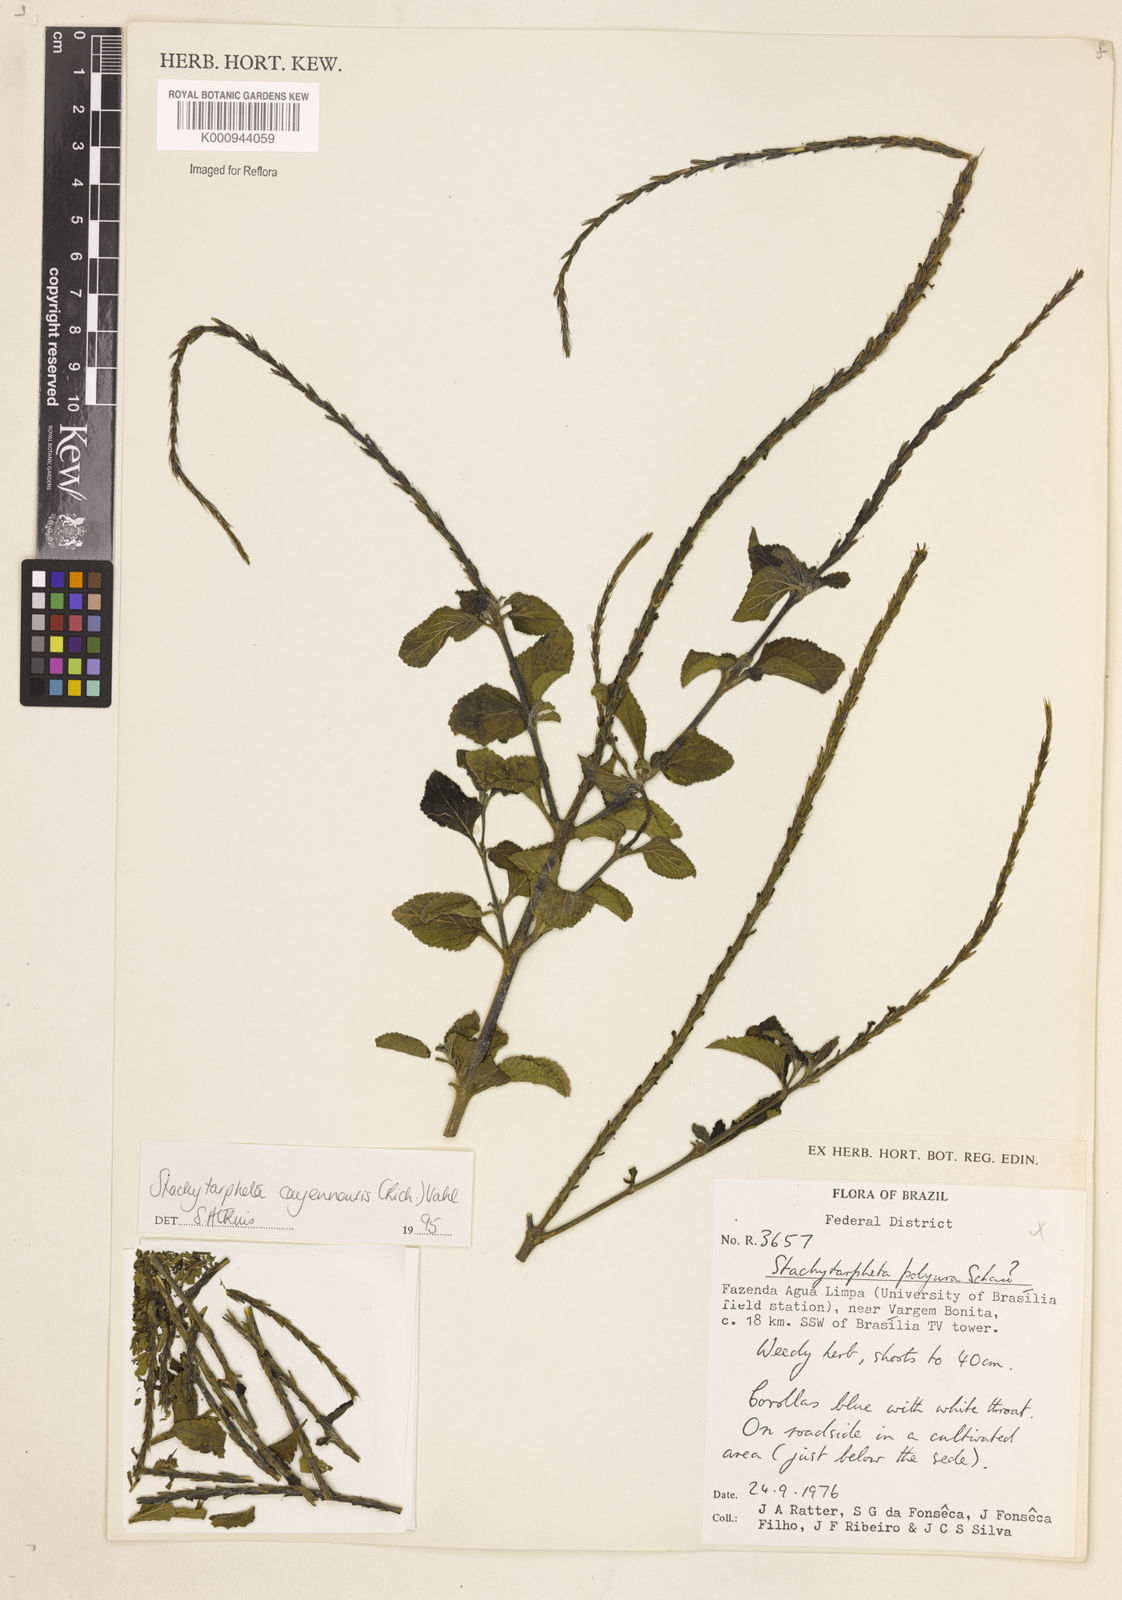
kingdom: Plantae
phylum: Tracheophyta
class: Magnoliopsida
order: Lamiales
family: Verbenaceae
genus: Aloysia
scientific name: Aloysia
